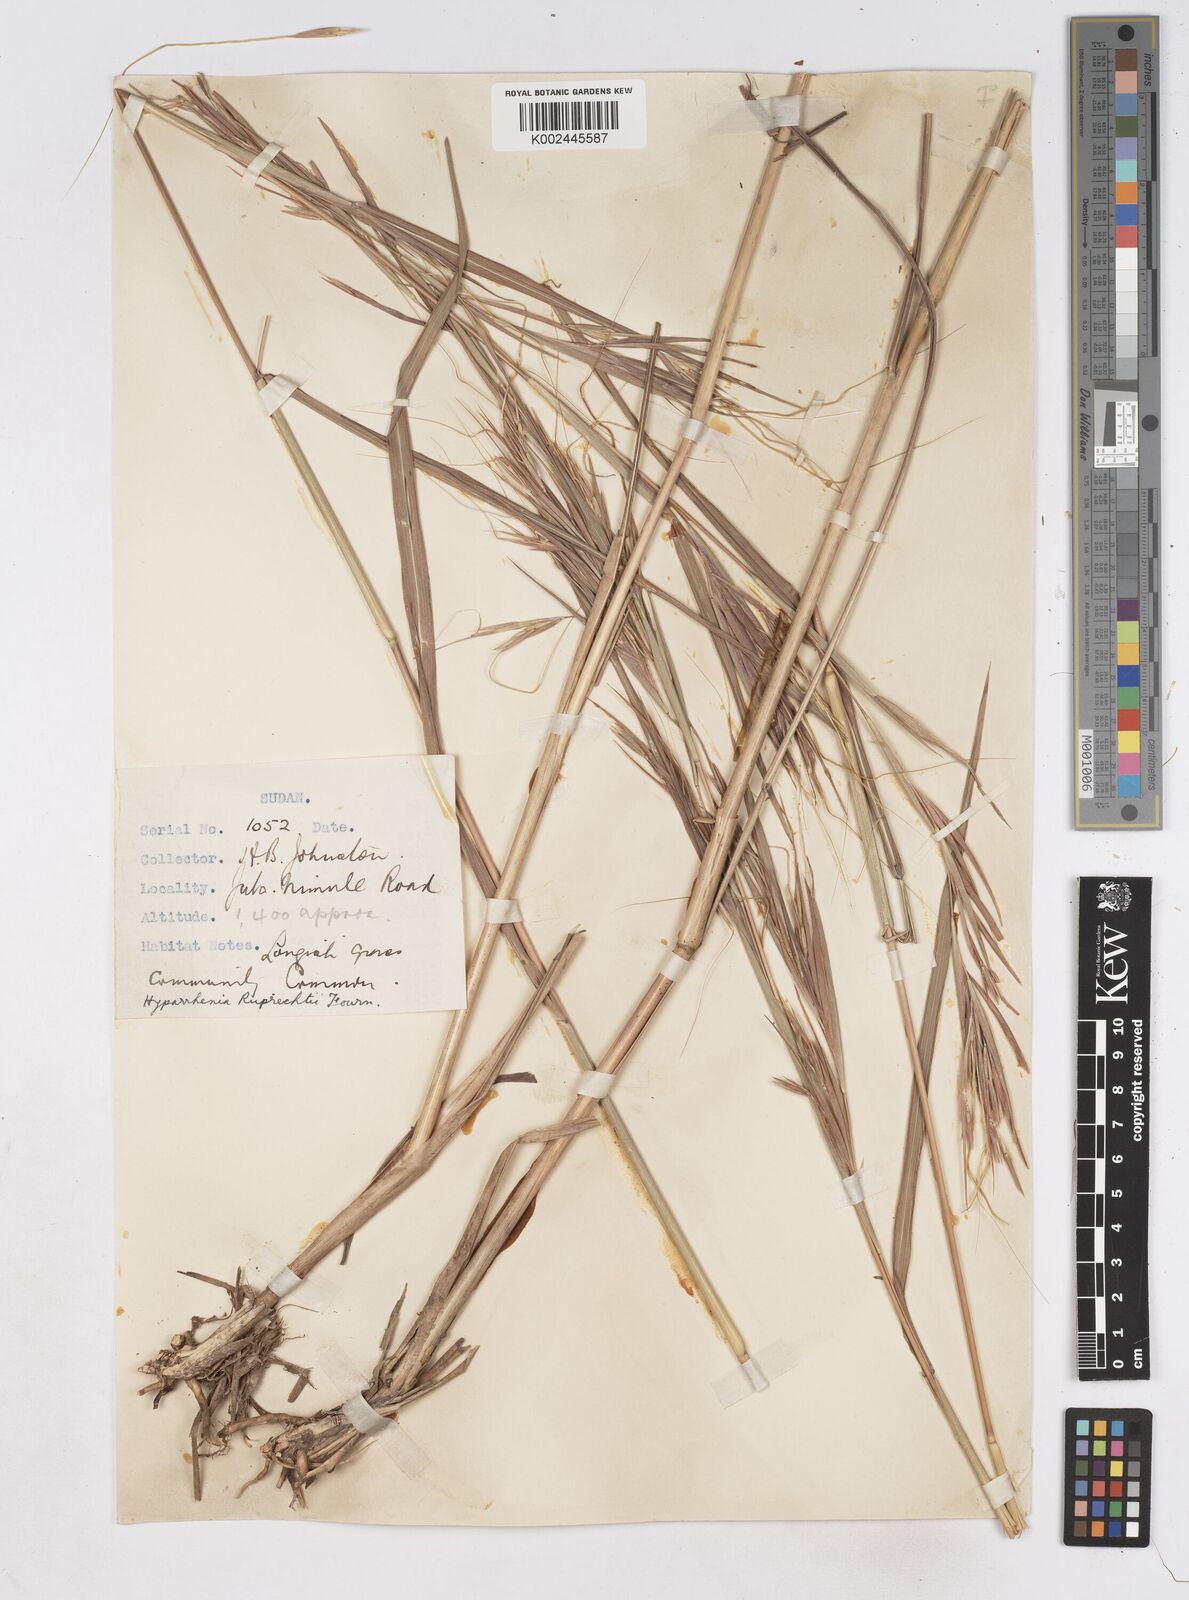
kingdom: Plantae
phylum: Tracheophyta
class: Liliopsida
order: Poales
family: Poaceae
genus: Hyperthelia
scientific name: Hyperthelia dissoluta
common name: Yellow thatching grass
